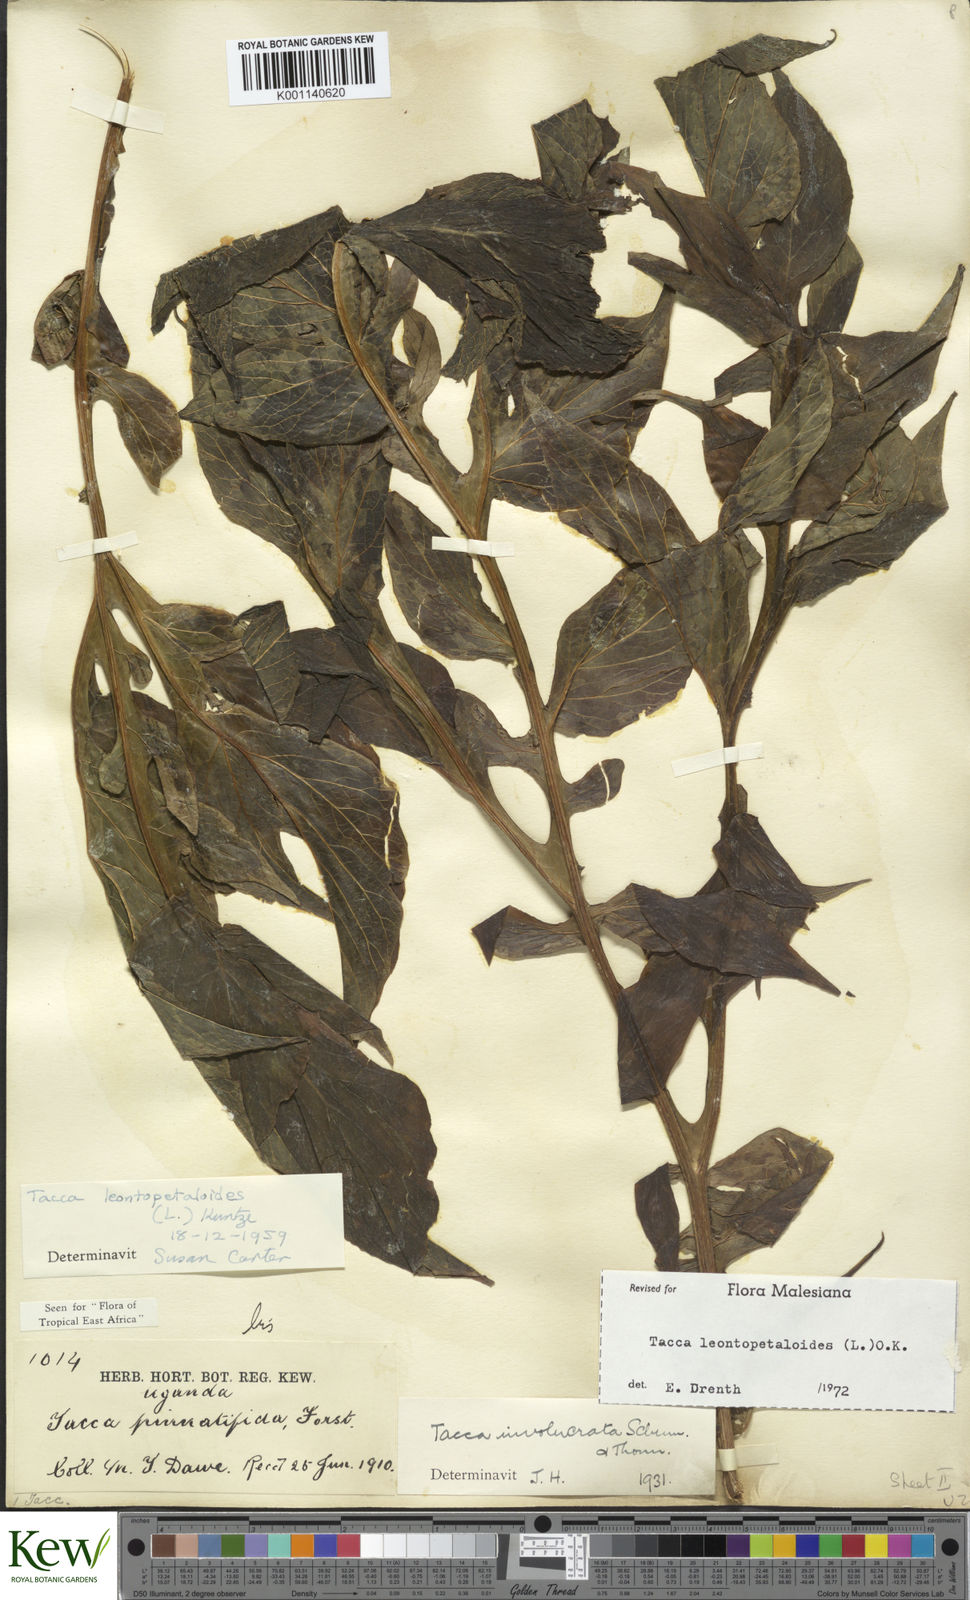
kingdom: Plantae
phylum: Tracheophyta
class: Liliopsida
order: Dioscoreales
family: Dioscoreaceae
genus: Tacca
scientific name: Tacca leontopetaloides
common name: Arrowroot
